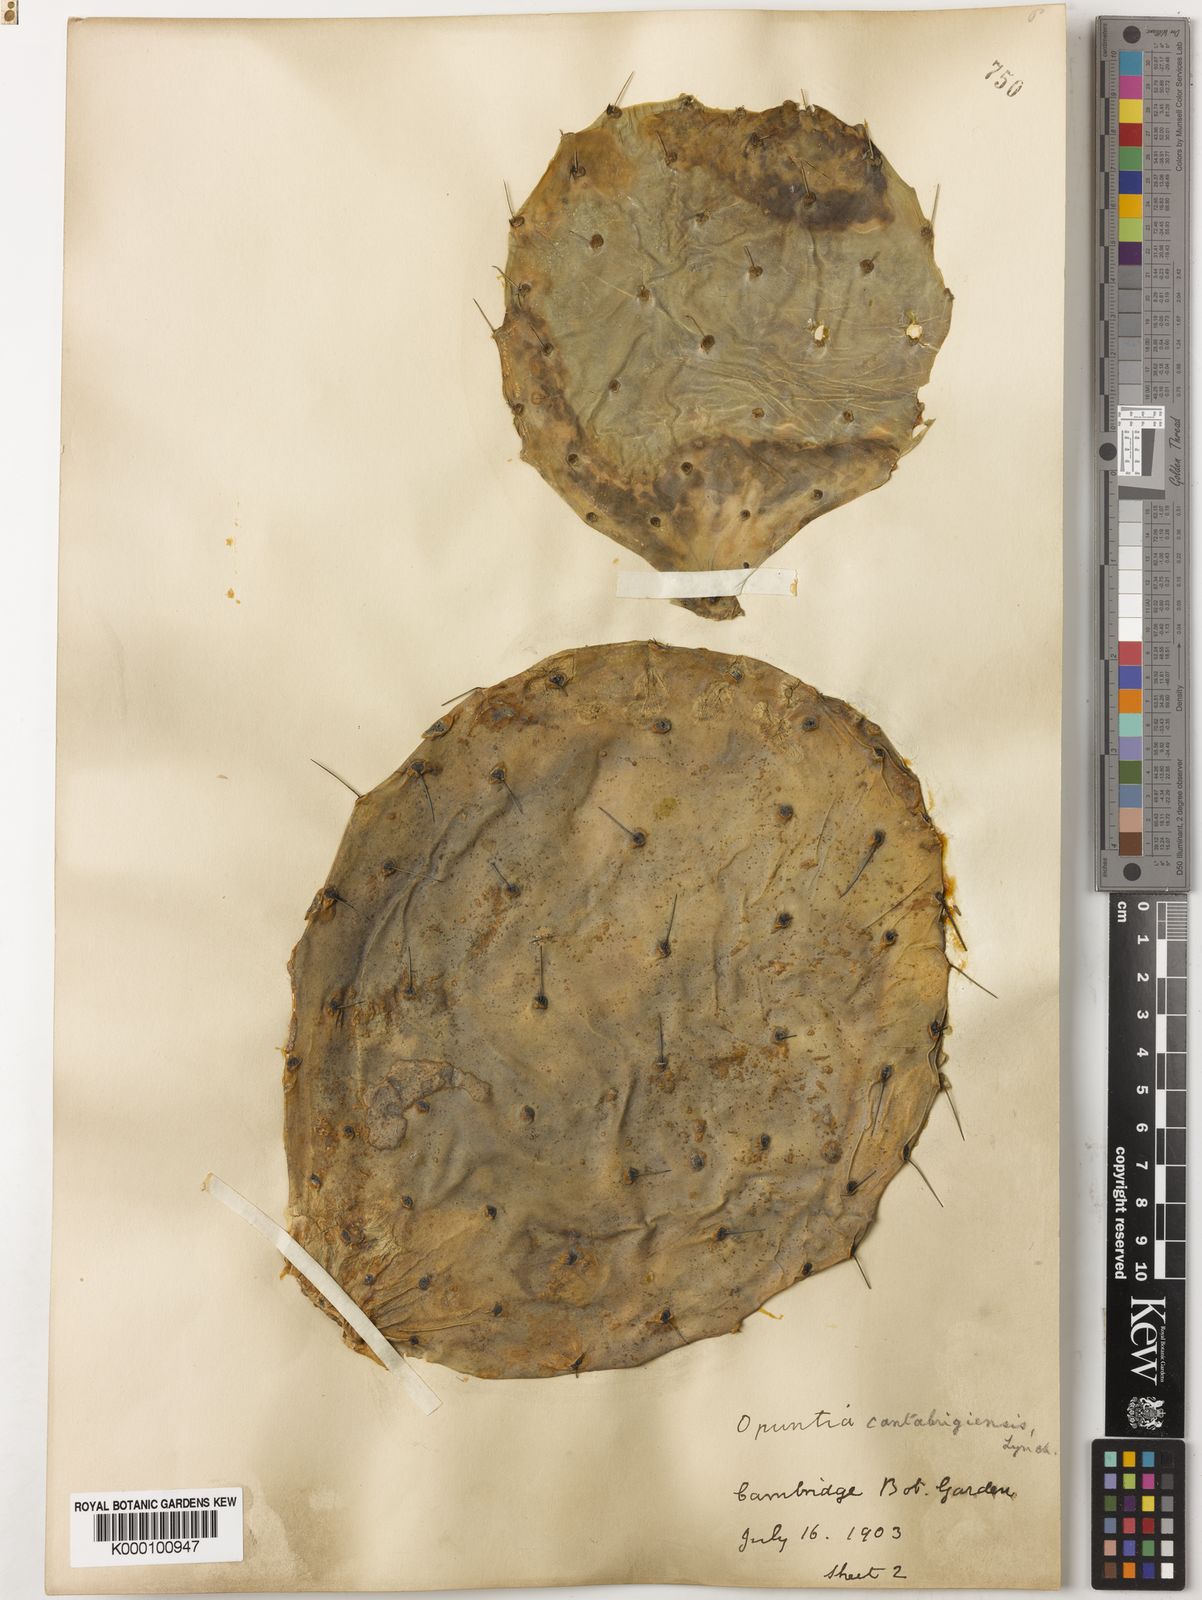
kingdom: Plantae
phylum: Tracheophyta
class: Magnoliopsida
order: Caryophyllales
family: Cactaceae
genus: Opuntia
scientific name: Opuntia engelmannii
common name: Cactus-apple
